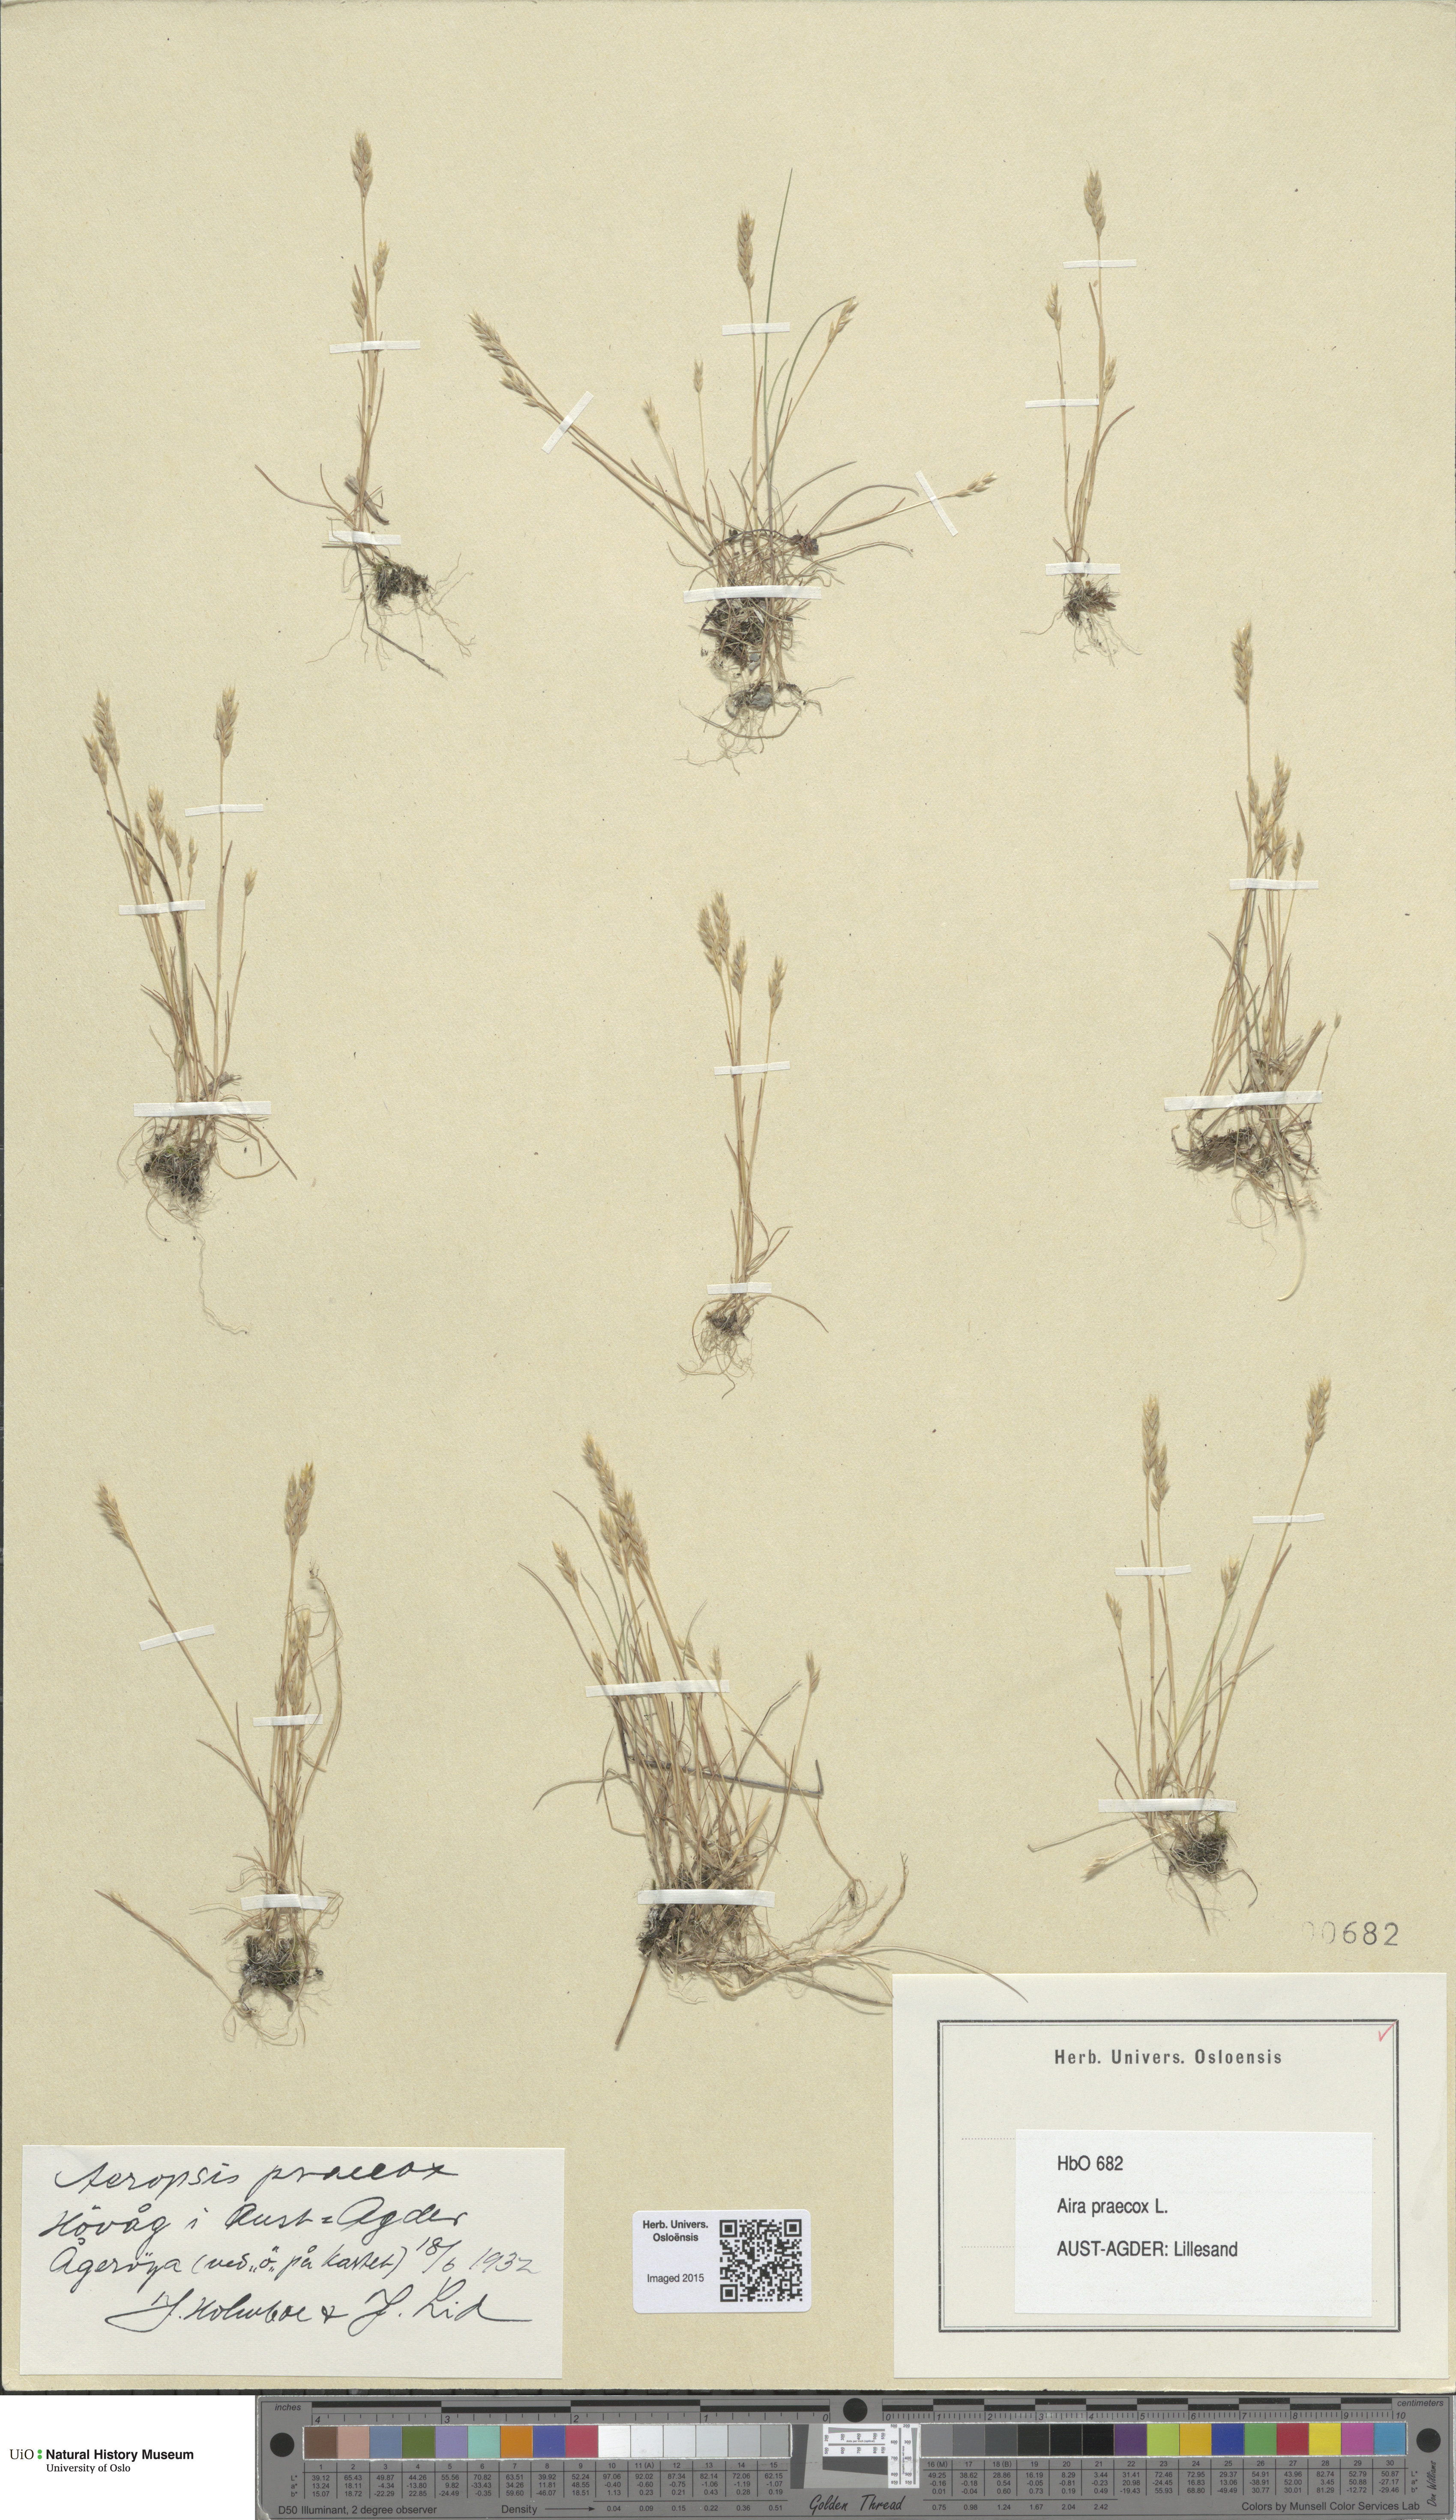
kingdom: Plantae
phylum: Tracheophyta
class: Liliopsida
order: Poales
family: Poaceae
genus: Aira
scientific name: Aira praecox
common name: Early hair-grass
